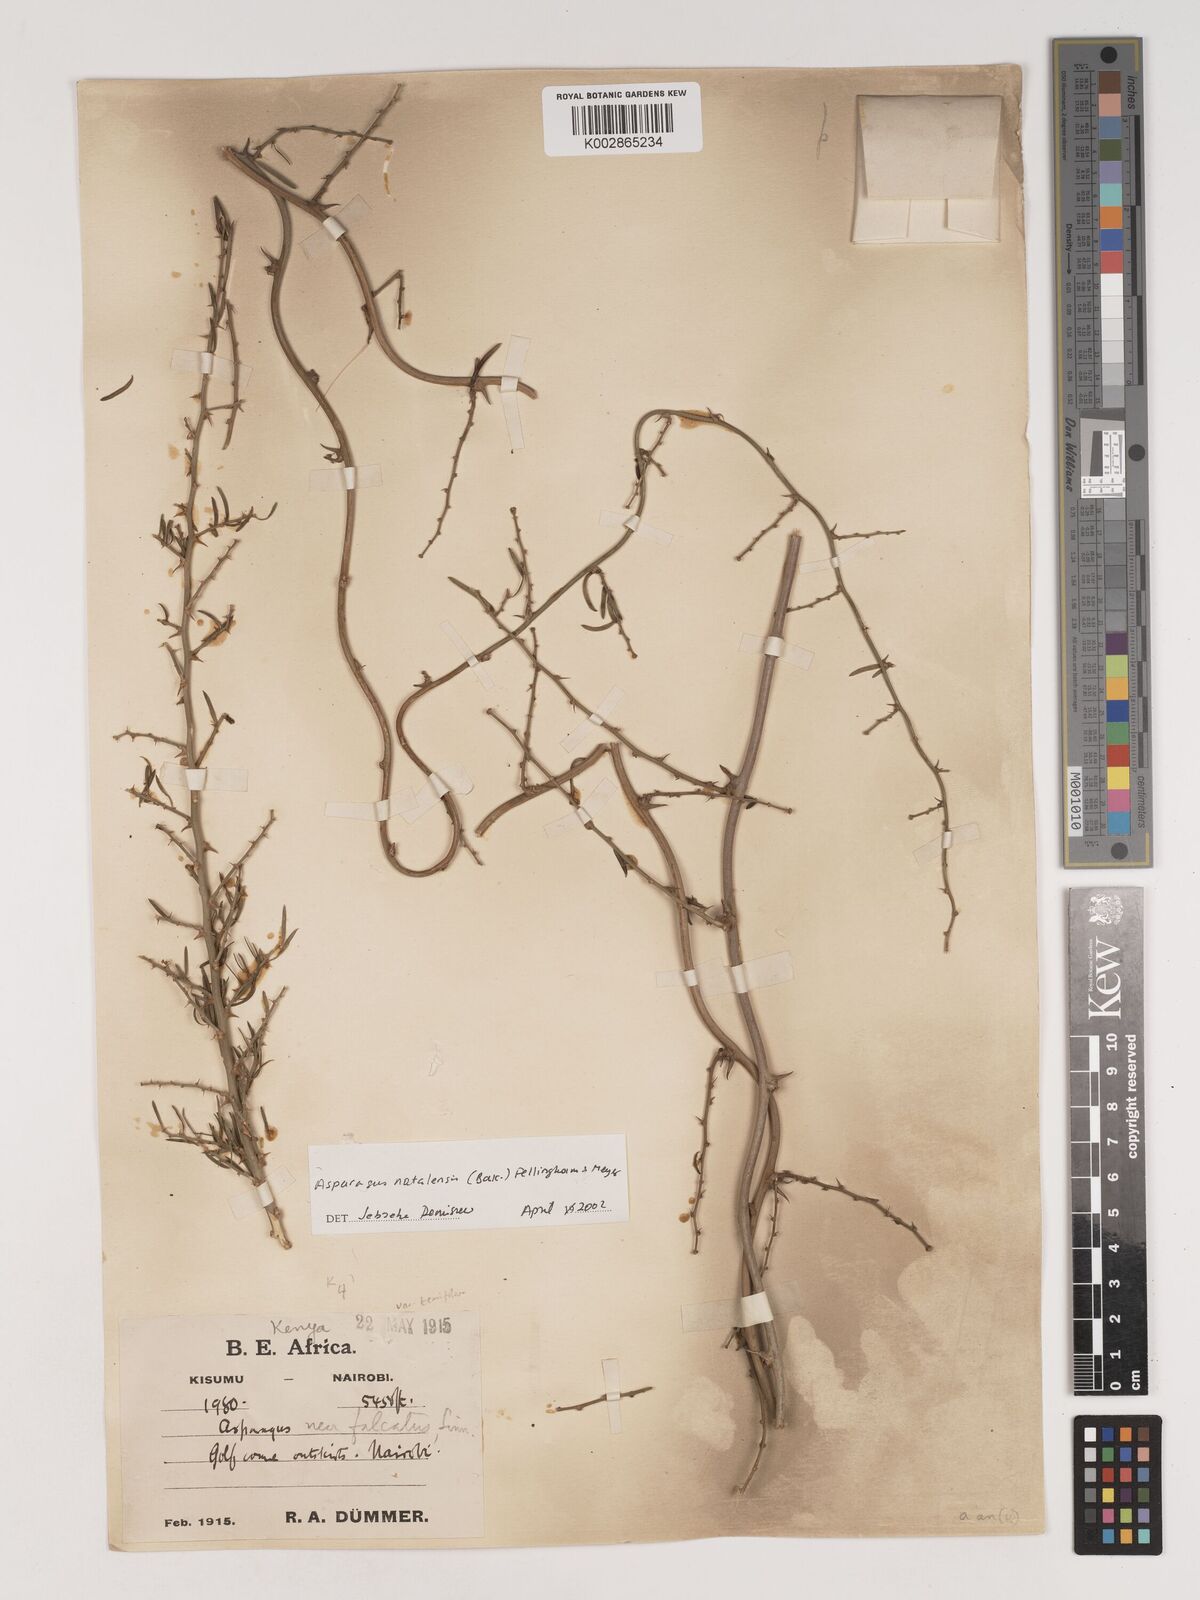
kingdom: Plantae
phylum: Tracheophyta
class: Liliopsida
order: Asparagales
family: Asparagaceae
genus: Asparagus
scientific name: Asparagus natalensis
